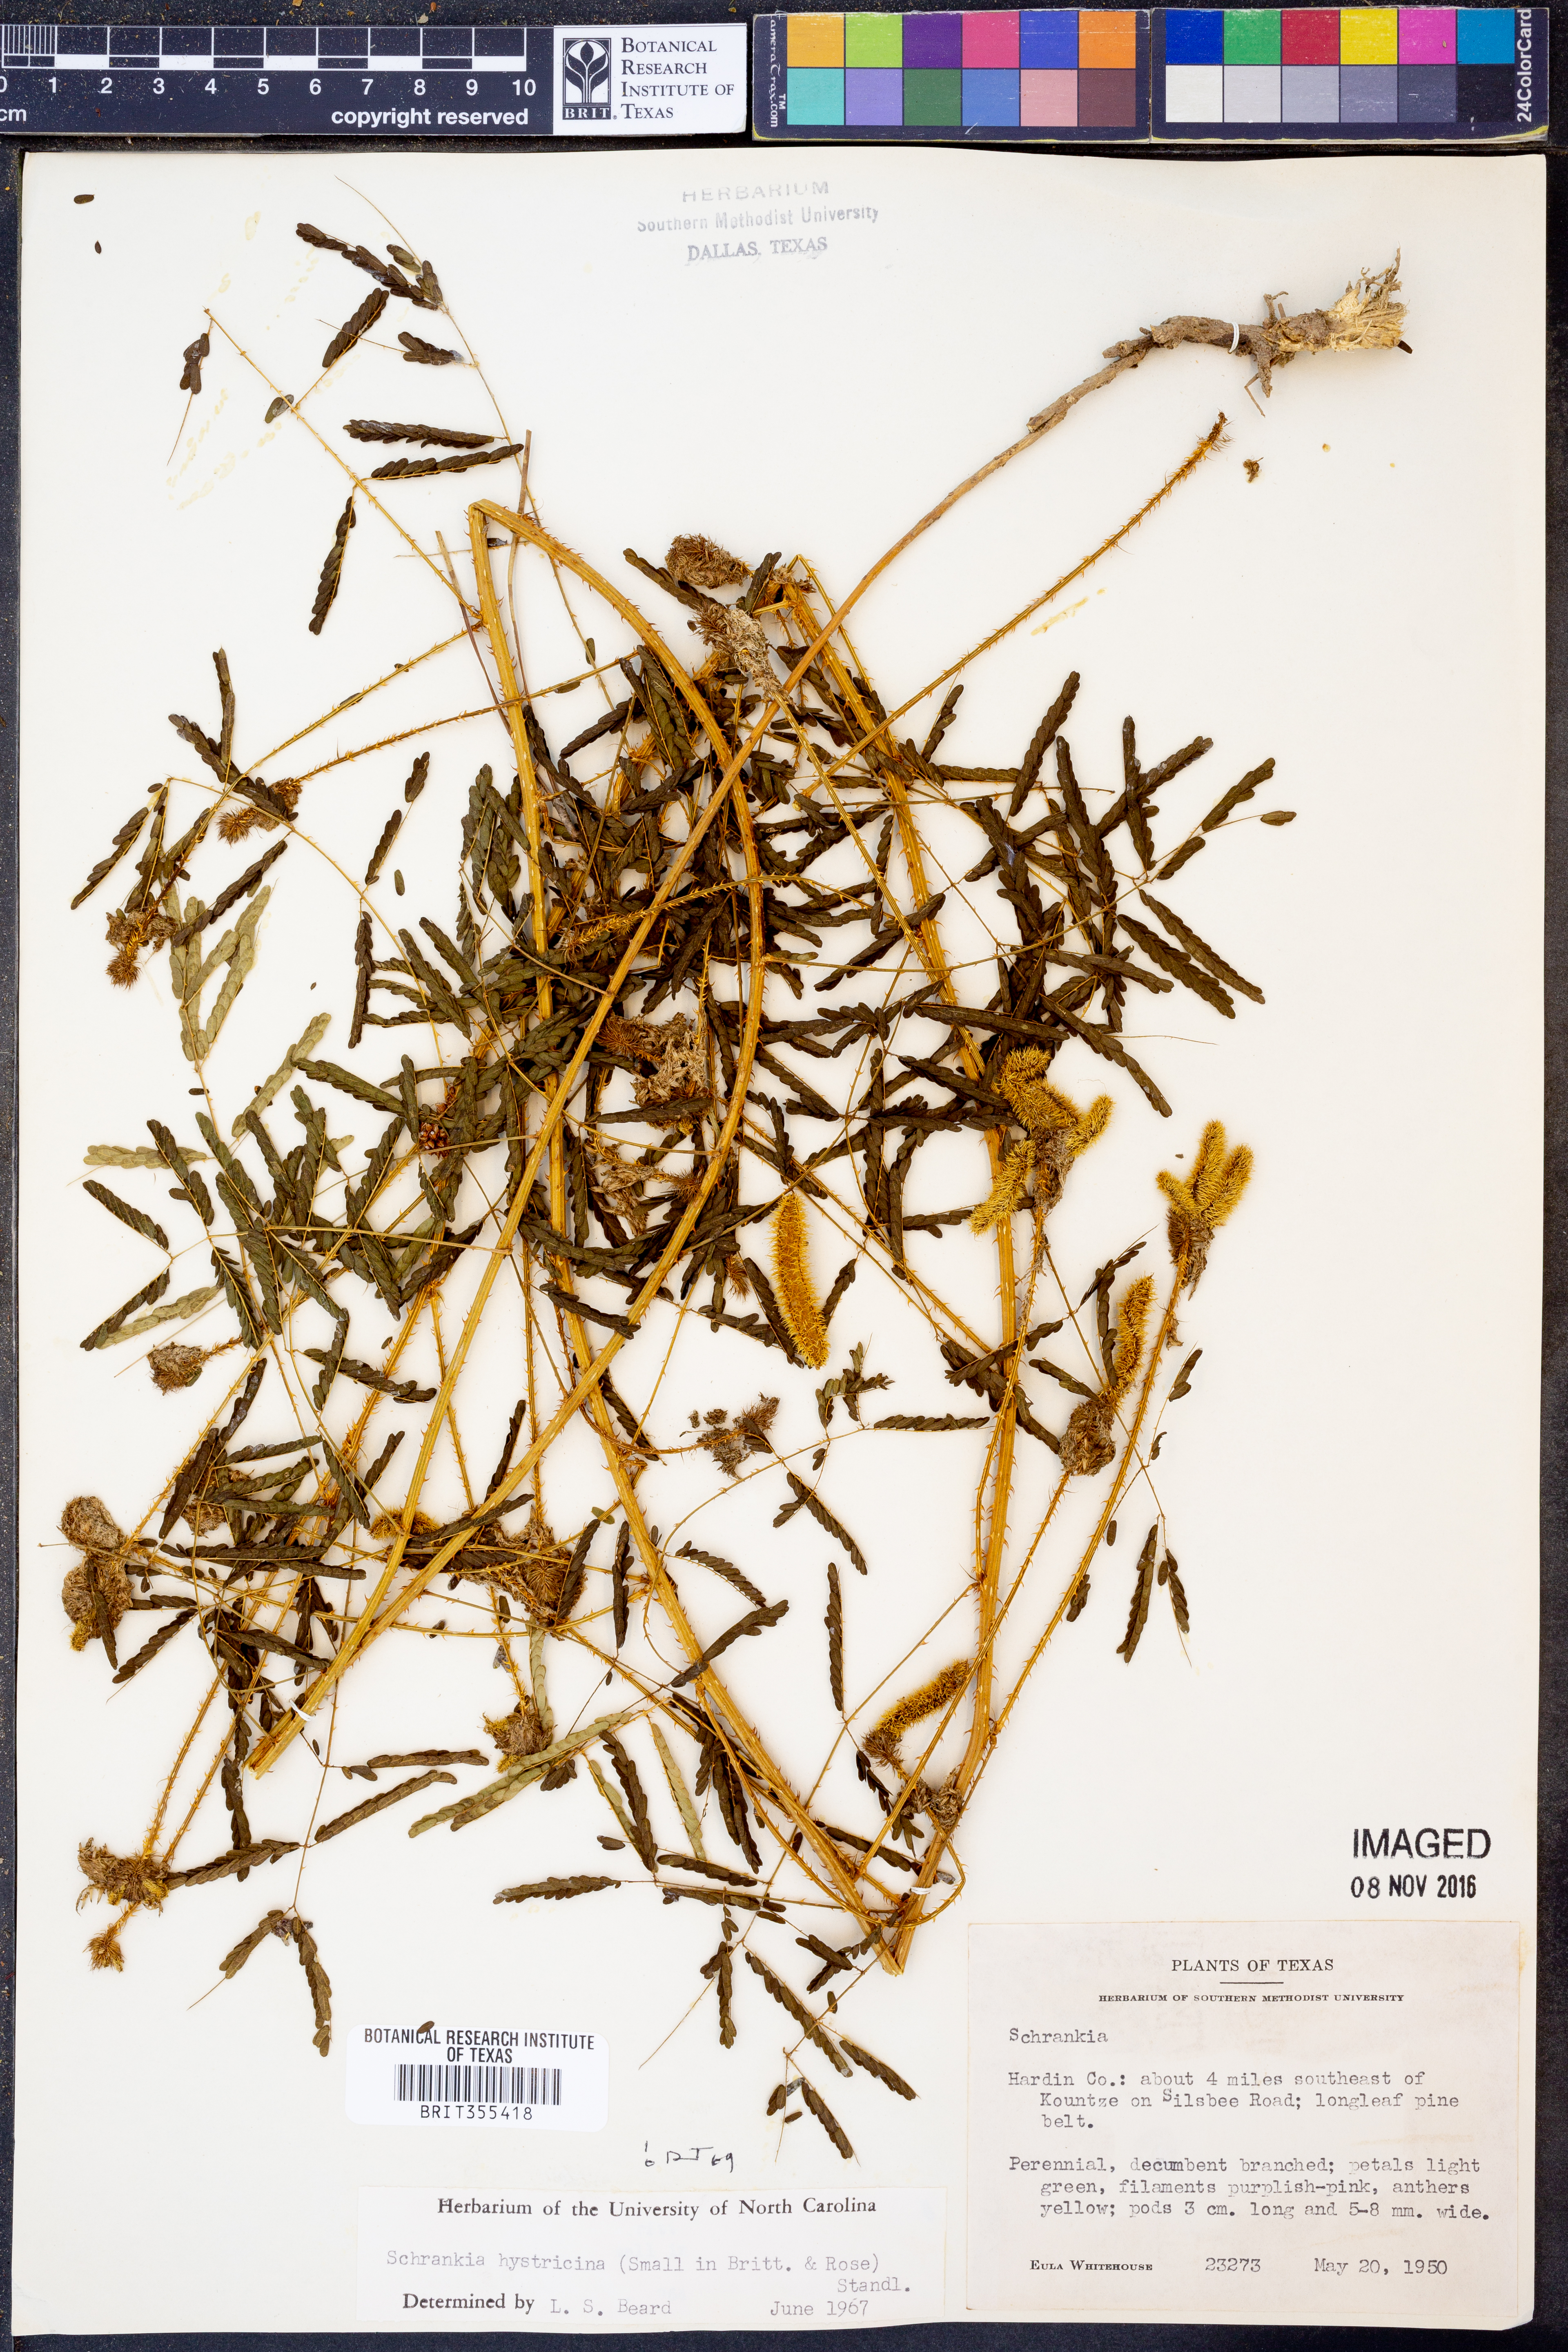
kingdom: Plantae
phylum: Tracheophyta
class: Magnoliopsida
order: Fabales
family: Fabaceae
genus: Mimosa
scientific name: Mimosa hystricina
